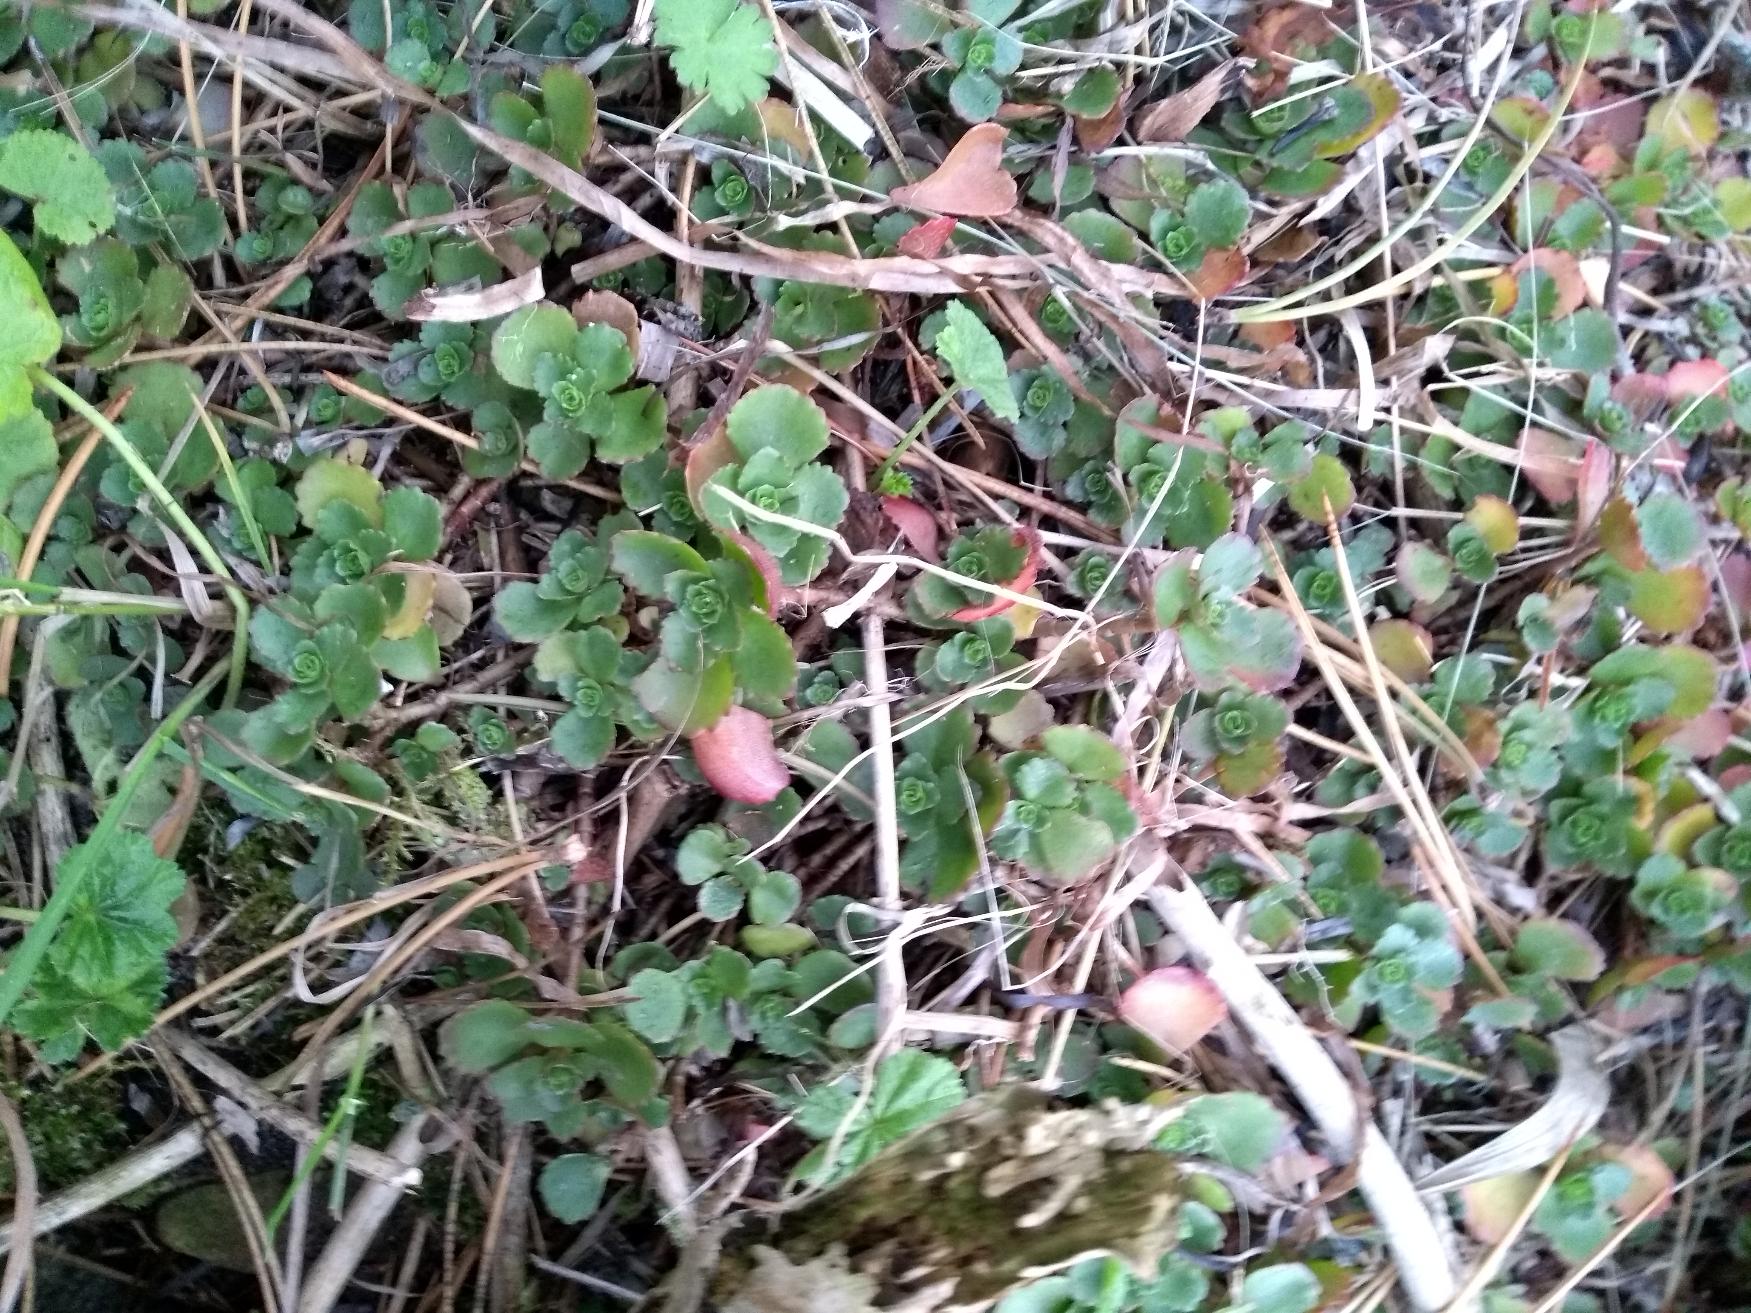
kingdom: Plantae
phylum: Tracheophyta
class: Magnoliopsida
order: Saxifragales
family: Crassulaceae
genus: Phedimus
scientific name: Phedimus spurius
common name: Rød stenurt
